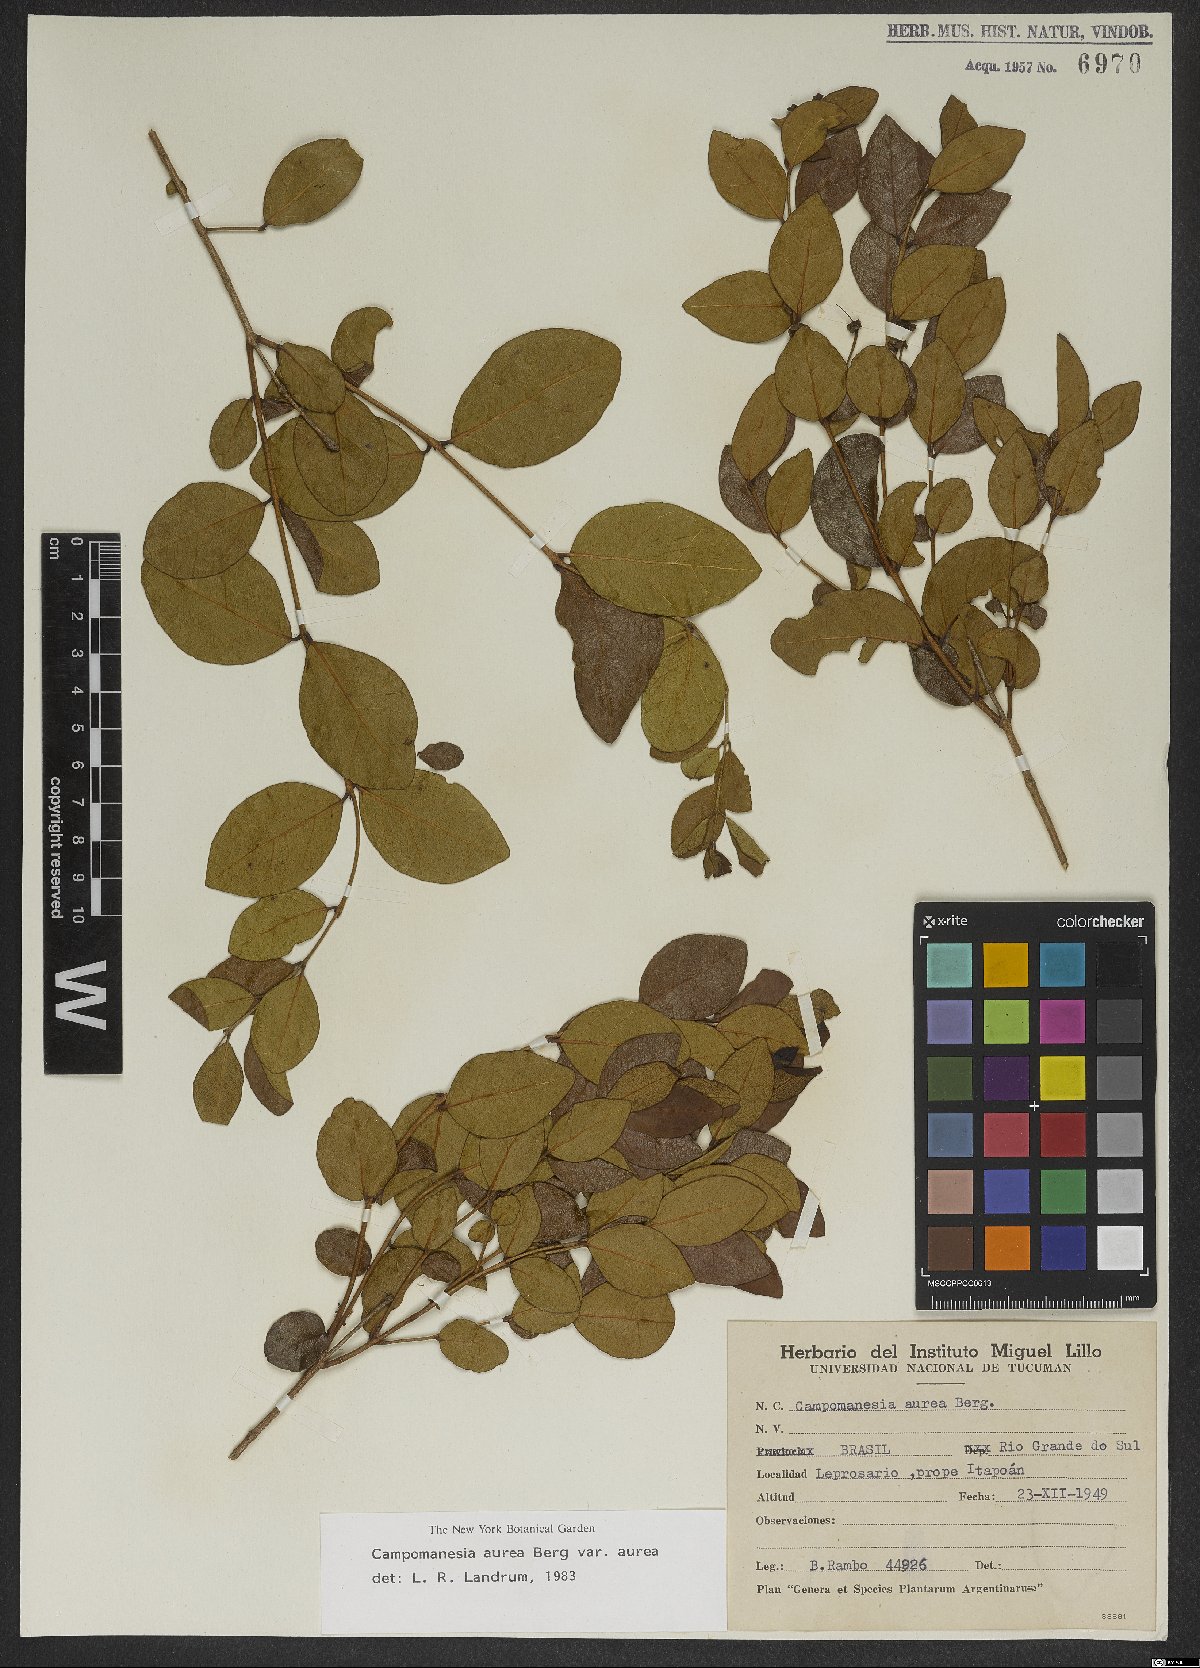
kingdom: Plantae
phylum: Tracheophyta
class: Magnoliopsida
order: Myrtales
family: Myrtaceae
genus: Campomanesia
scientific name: Campomanesia aurea
